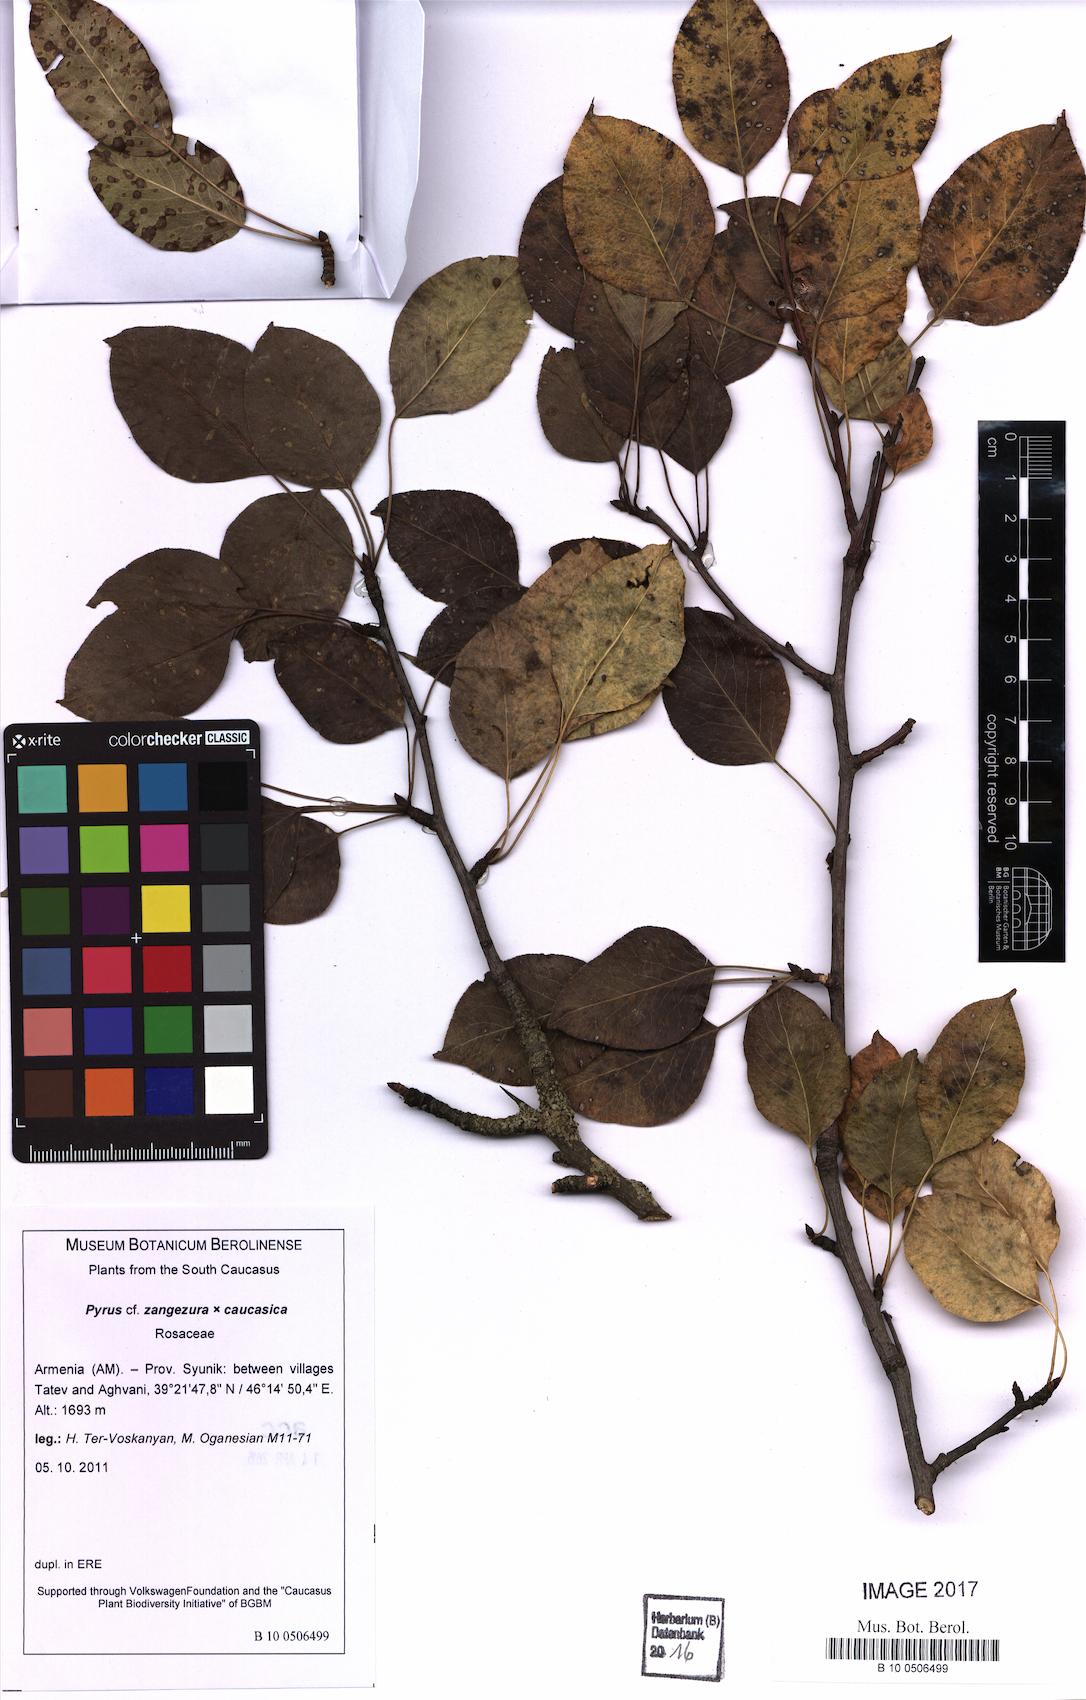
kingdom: Plantae
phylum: Tracheophyta
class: Magnoliopsida
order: Rosales
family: Rosaceae
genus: Pyrus
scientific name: Pyrus zangezura
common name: Zangezurian pear
